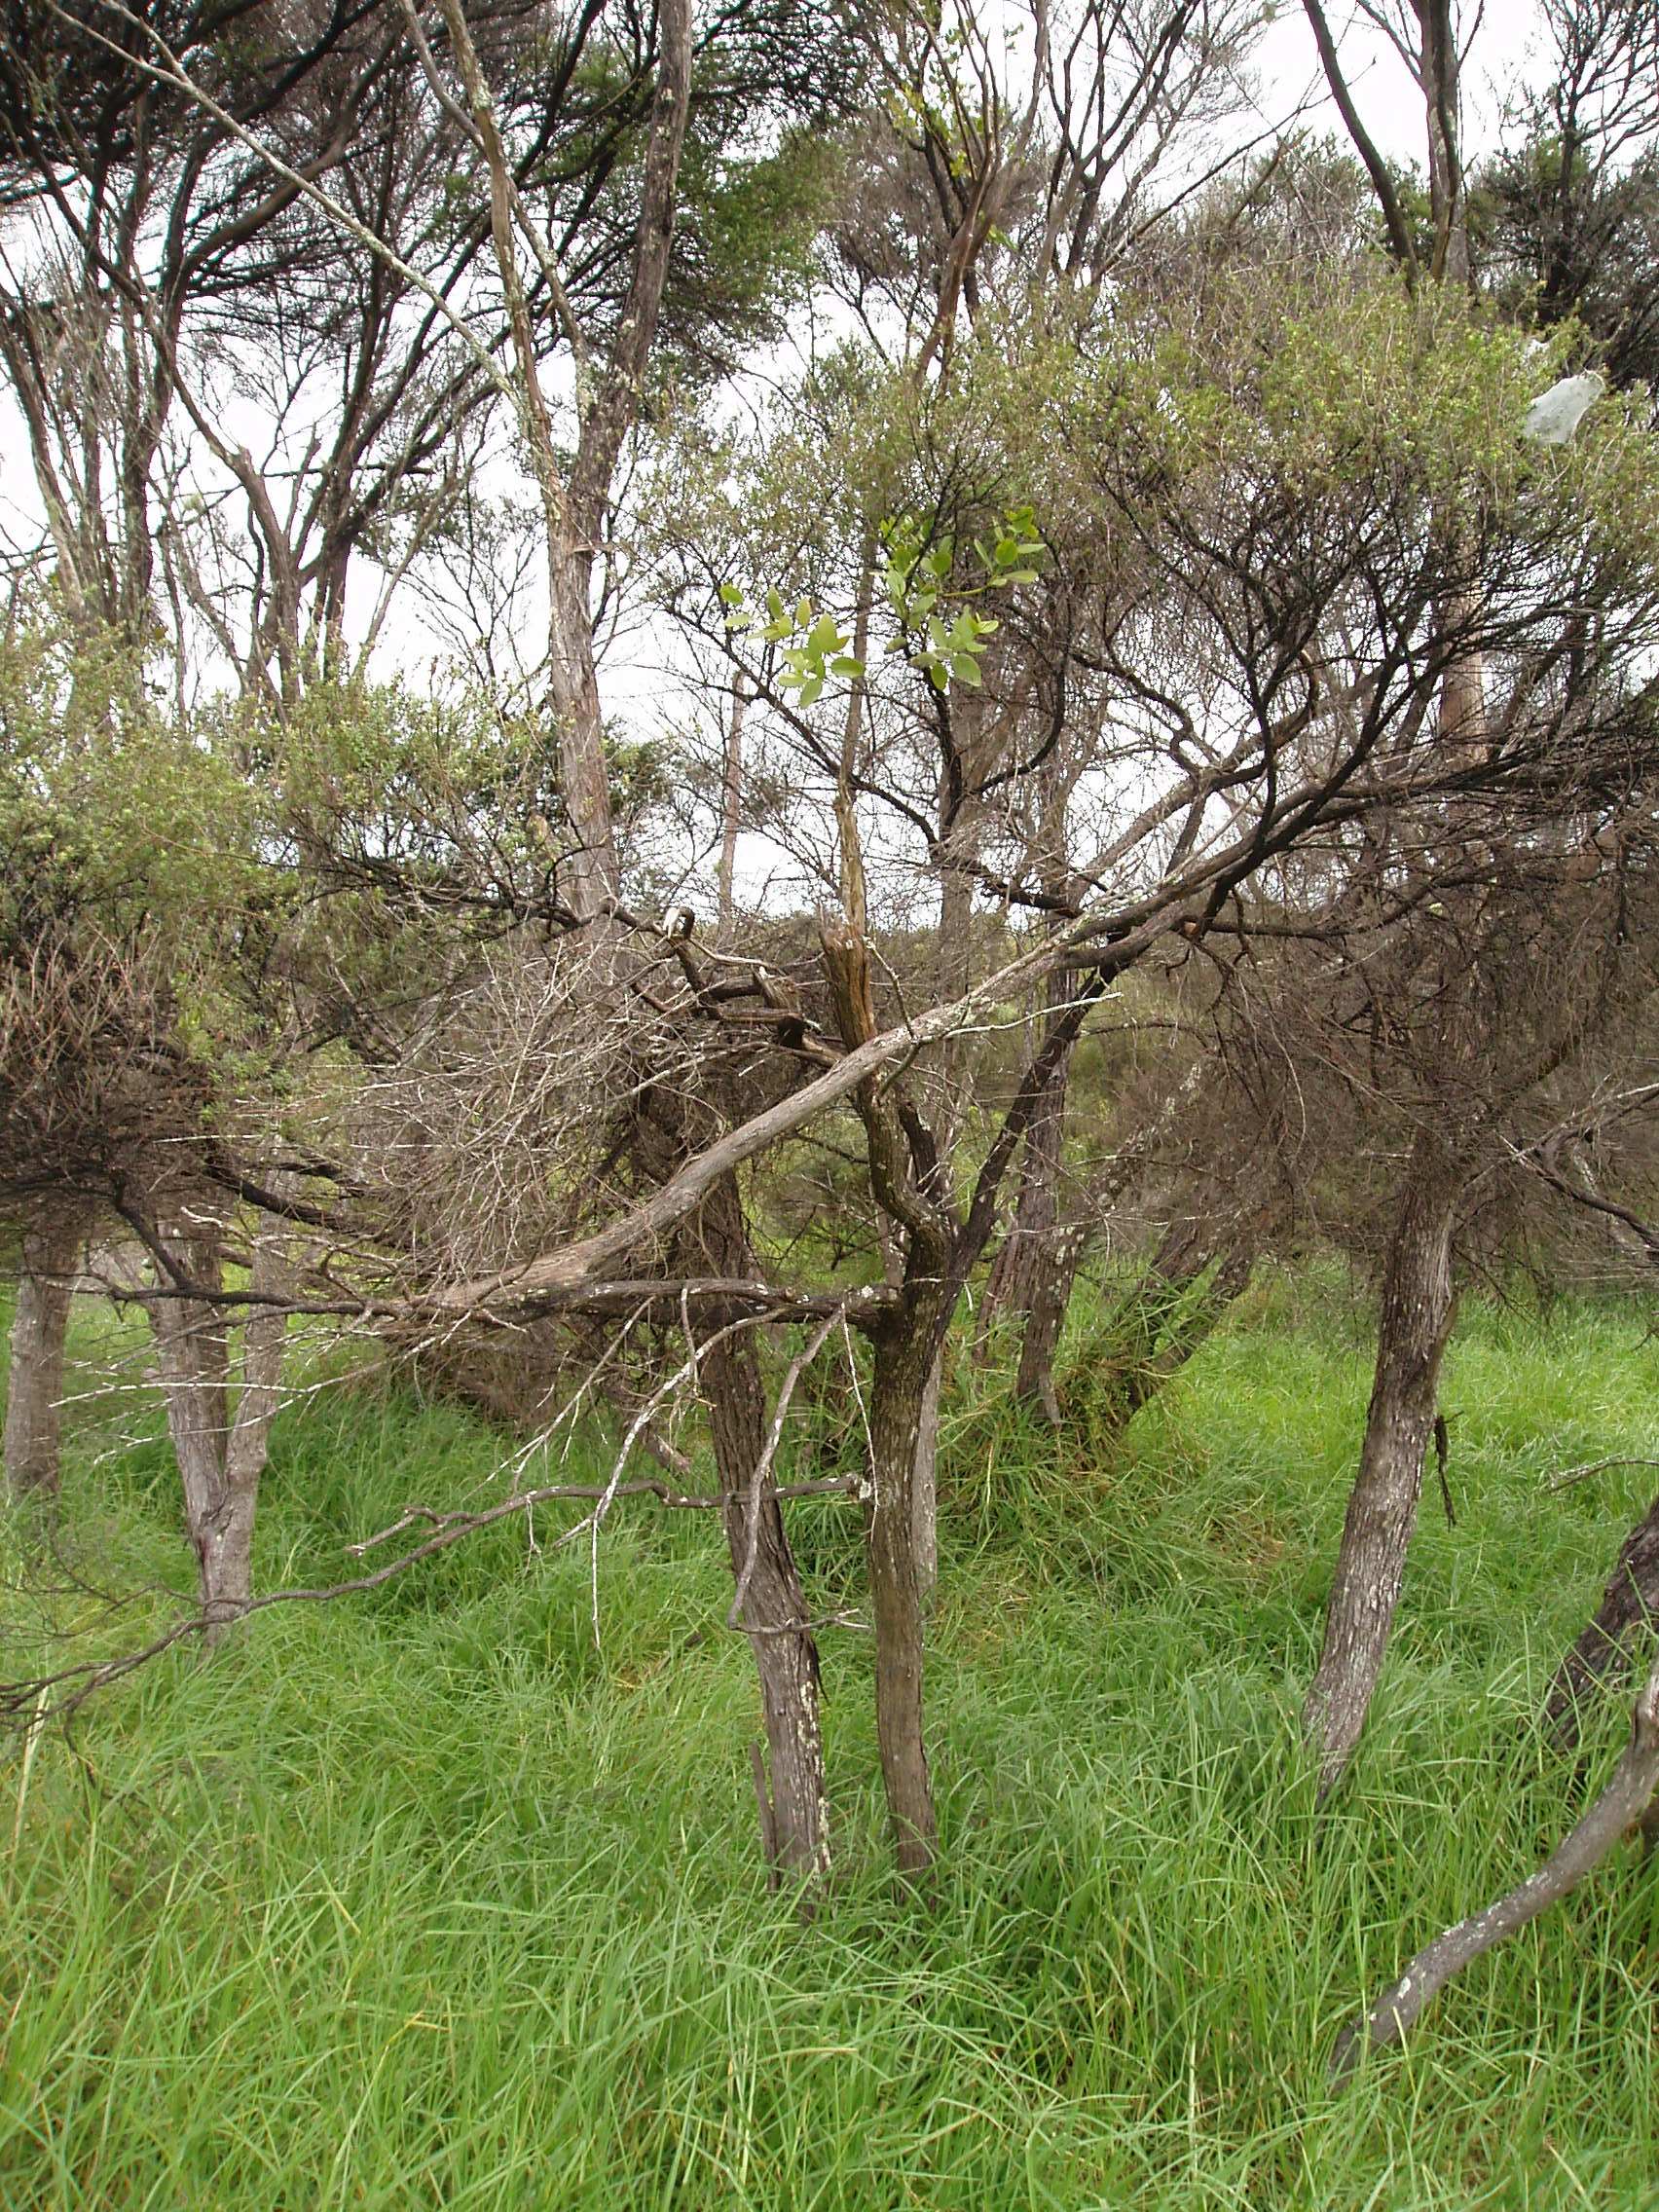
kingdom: Plantae
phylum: Tracheophyta
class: Magnoliopsida
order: Myrtales
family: Myrtaceae
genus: Kunzea
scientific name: Kunzea amathicola
